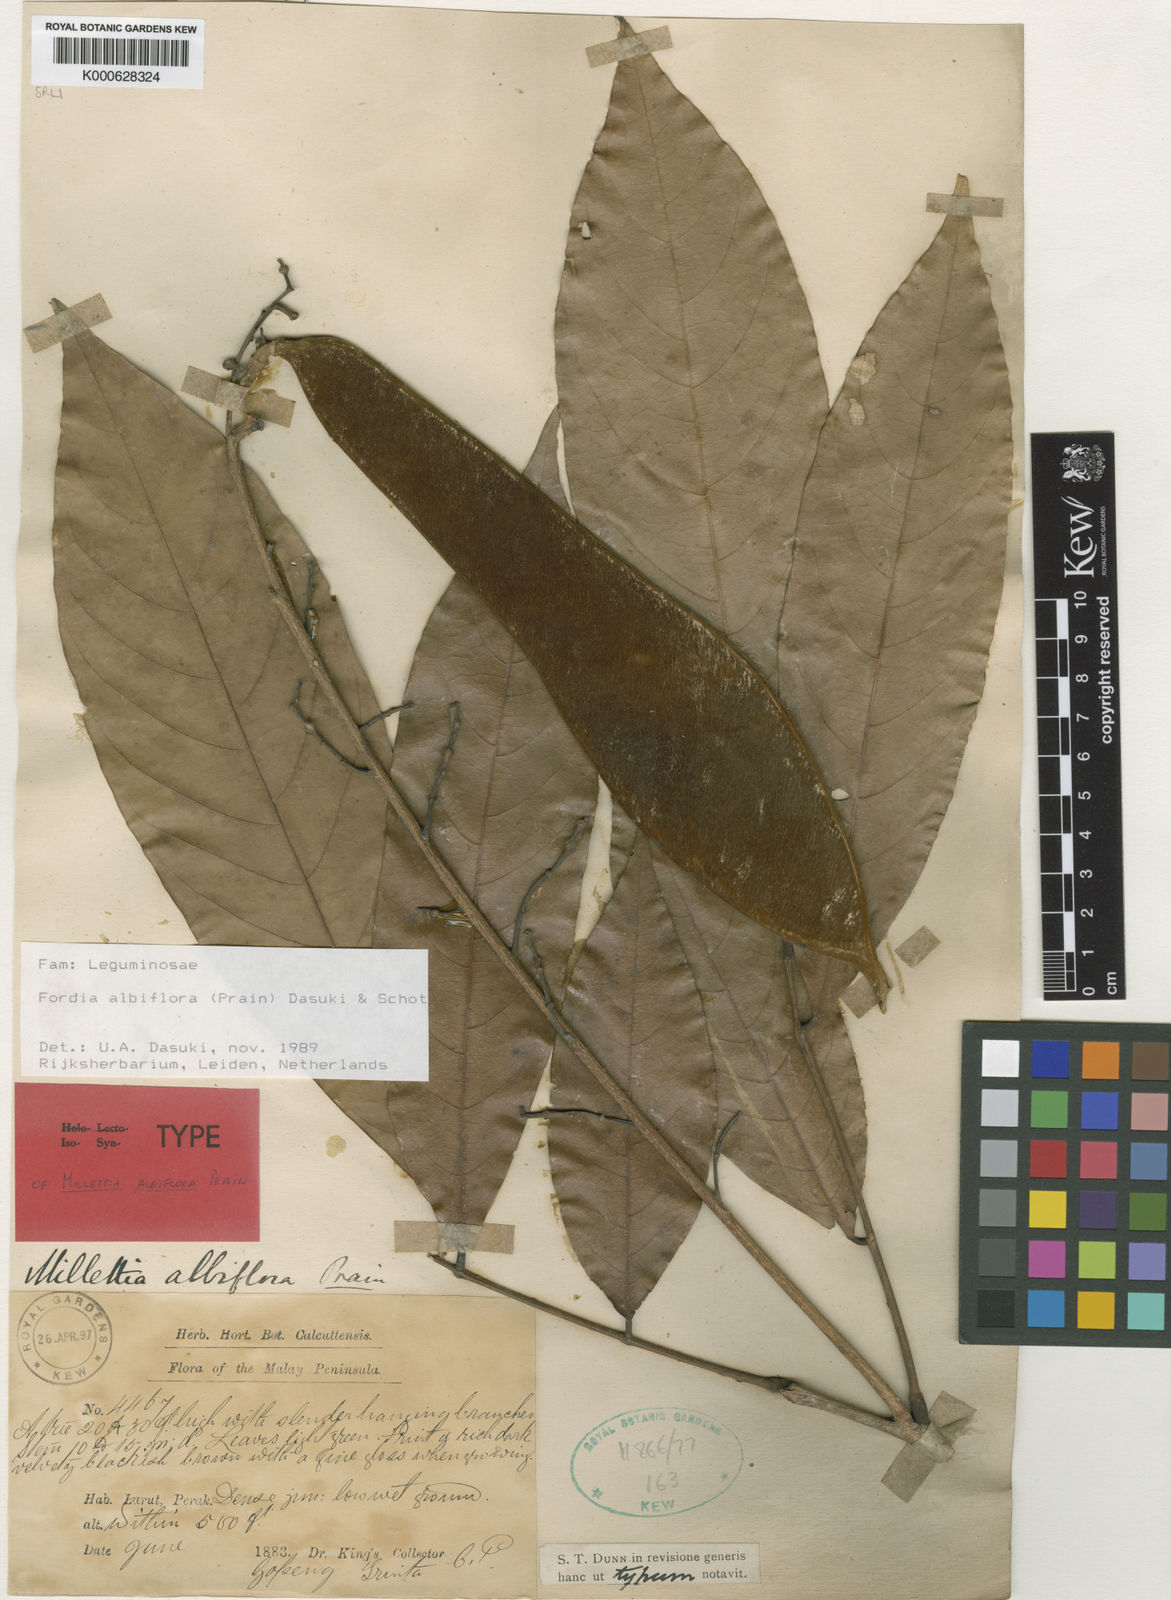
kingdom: Plantae
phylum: Tracheophyta
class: Magnoliopsida
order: Fabales
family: Fabaceae
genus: Imbralyx
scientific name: Imbralyx albiflorus
